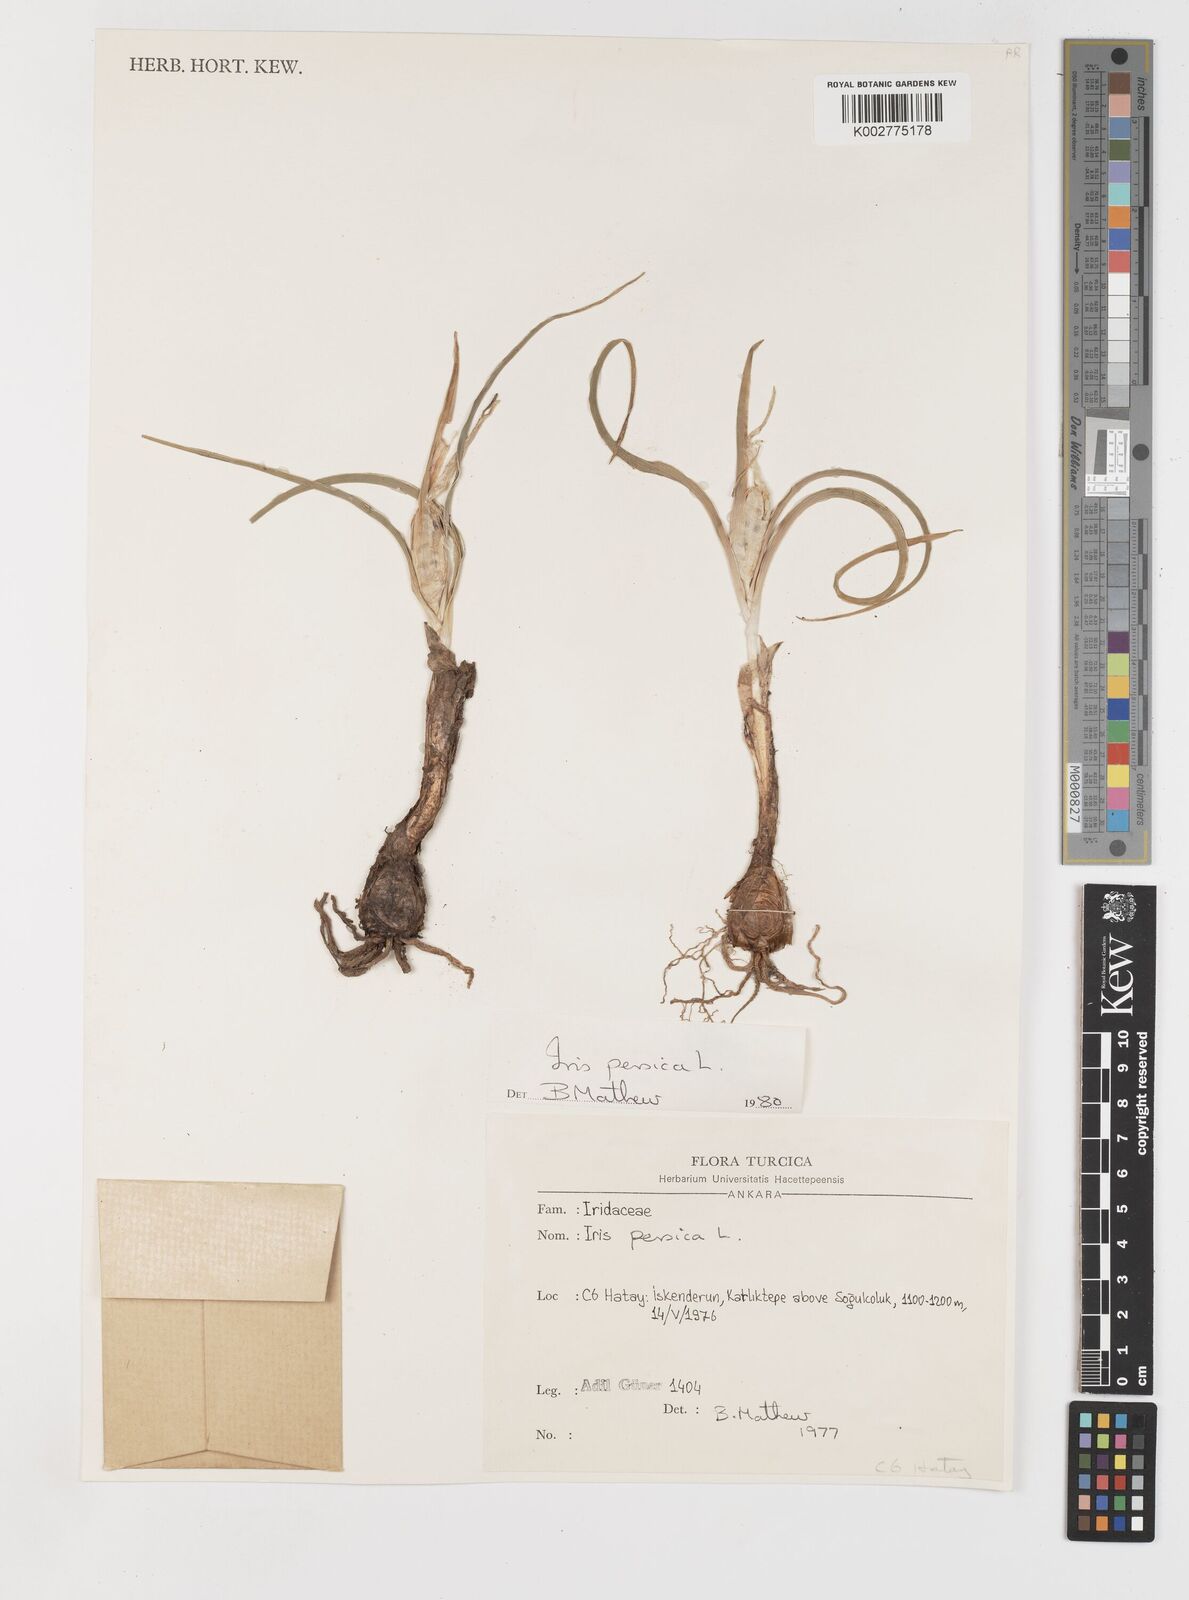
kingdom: Plantae
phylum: Tracheophyta
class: Liliopsida
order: Asparagales
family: Iridaceae
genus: Iris
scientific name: Iris persica
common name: Persian iris
